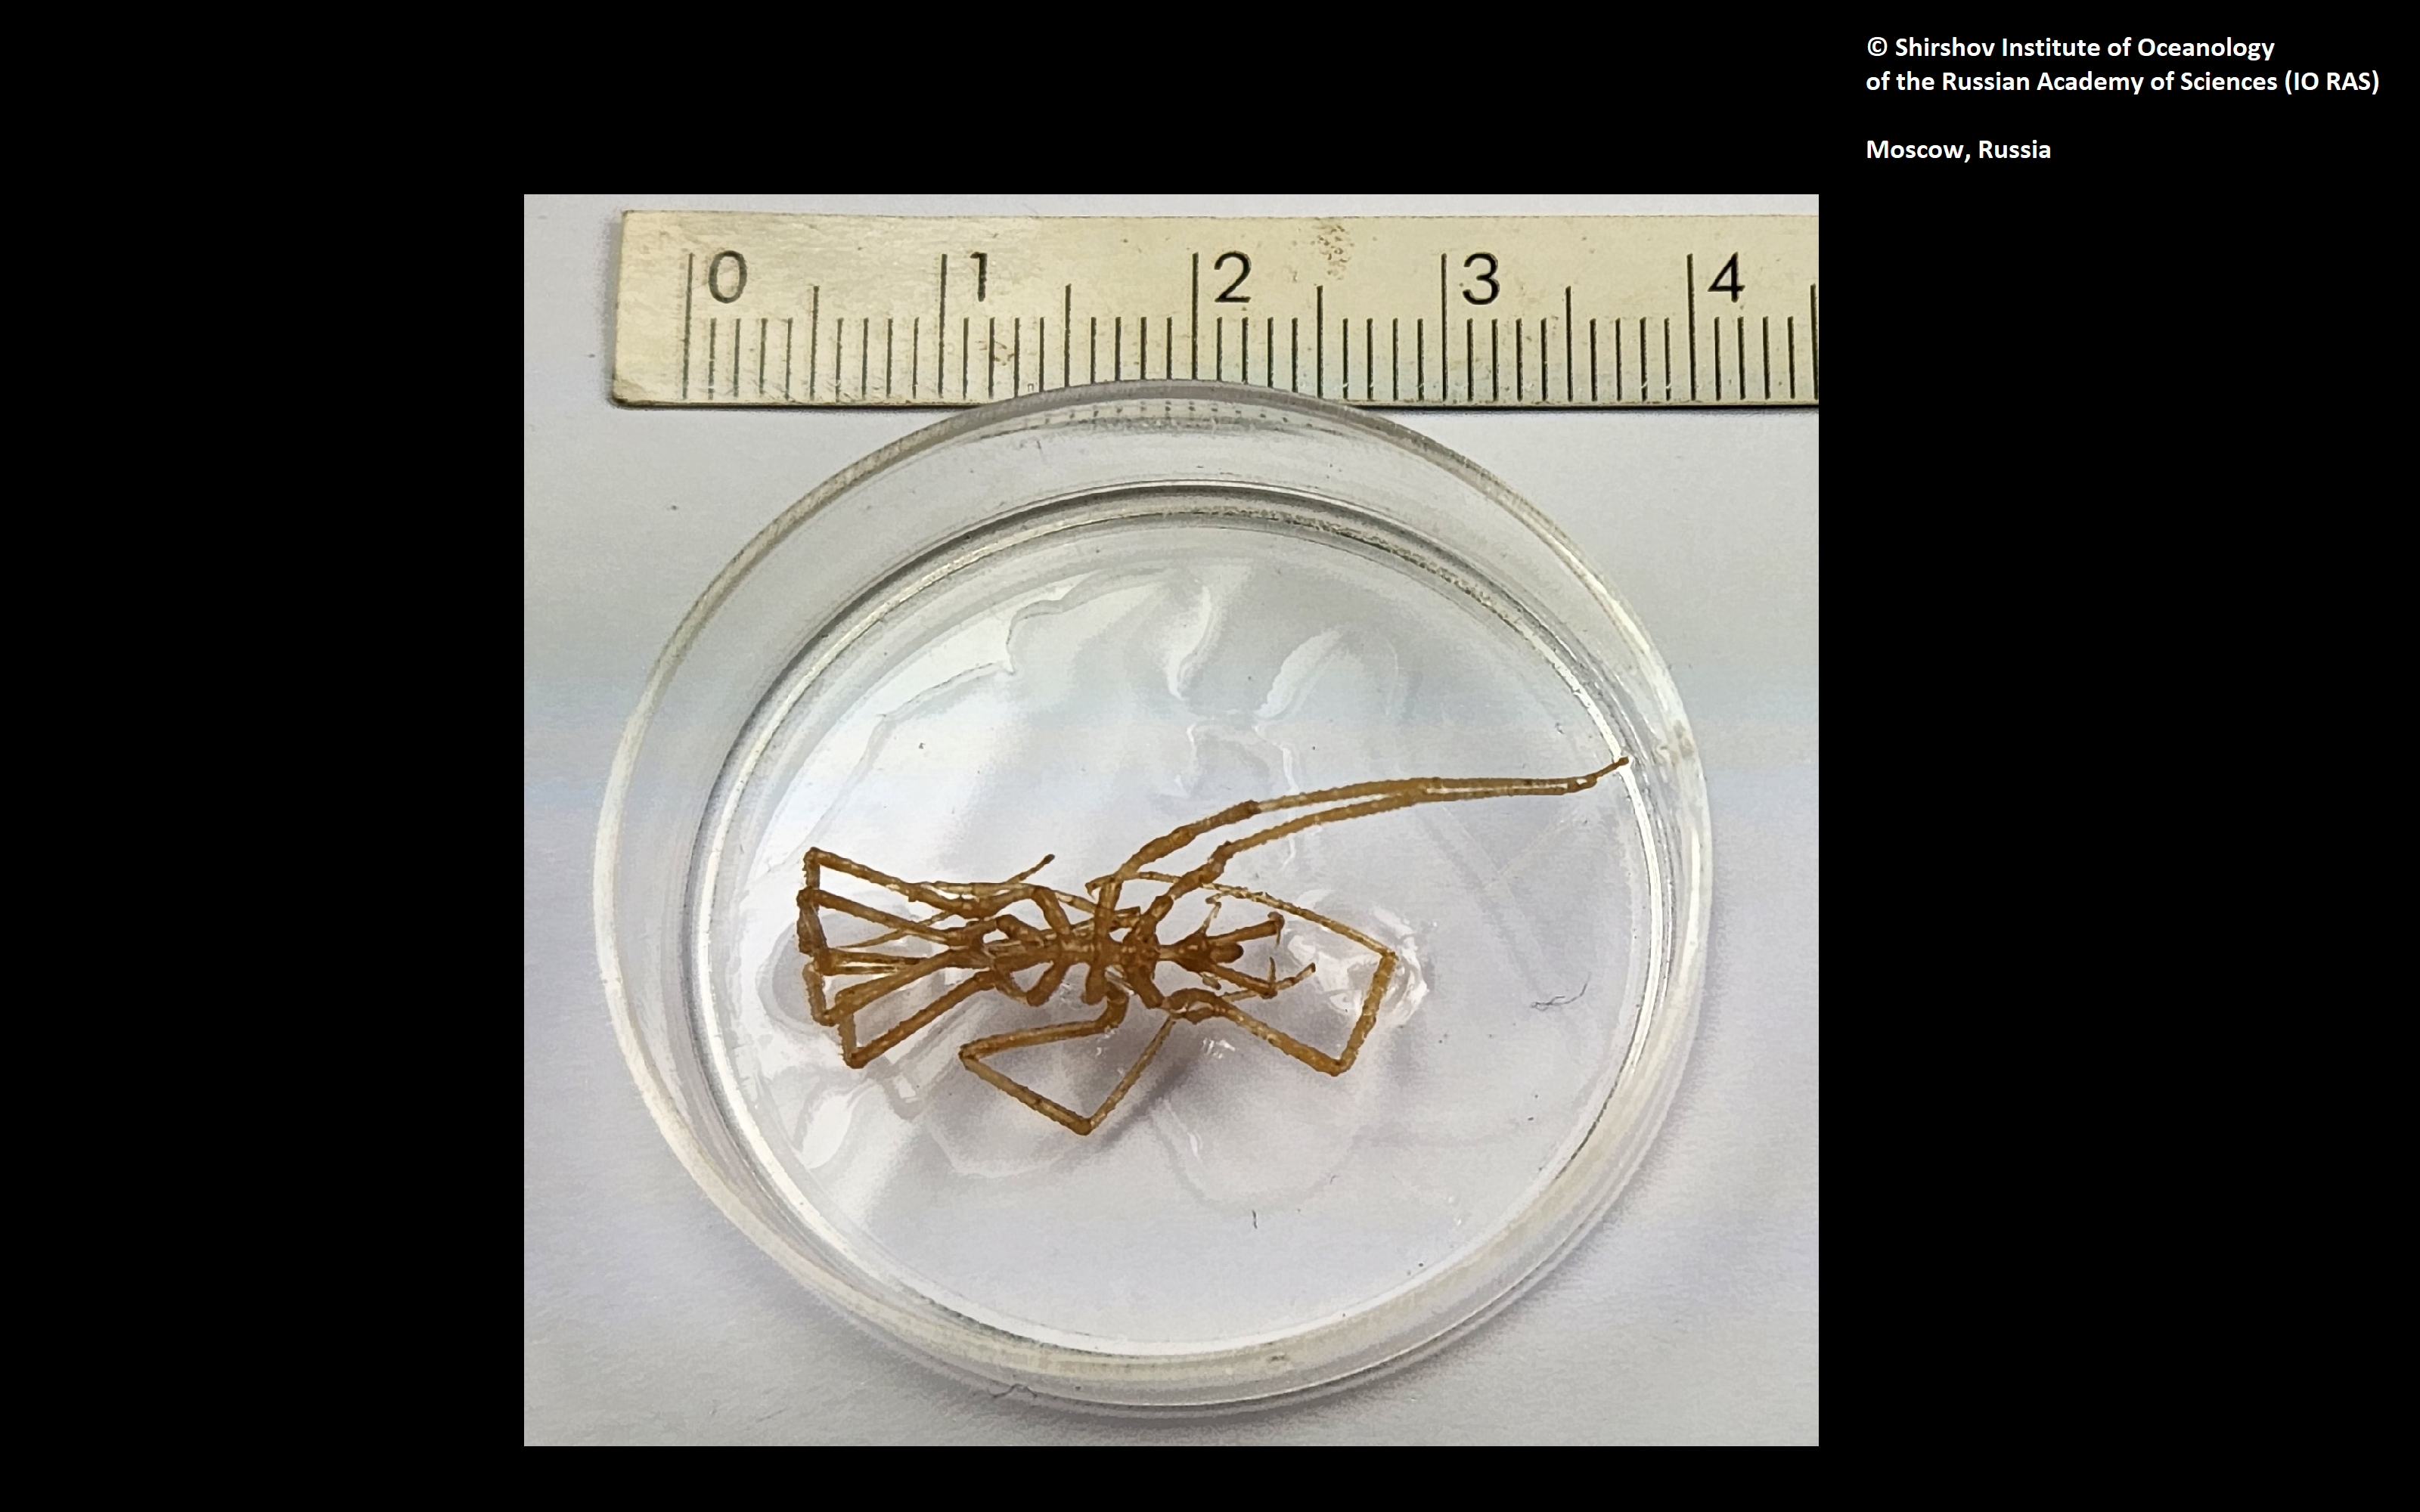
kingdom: Animalia
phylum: Arthropoda
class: Pycnogonida
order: Pantopoda
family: Nymphonidae
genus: Nymphon
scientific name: Nymphon quadriclavus
